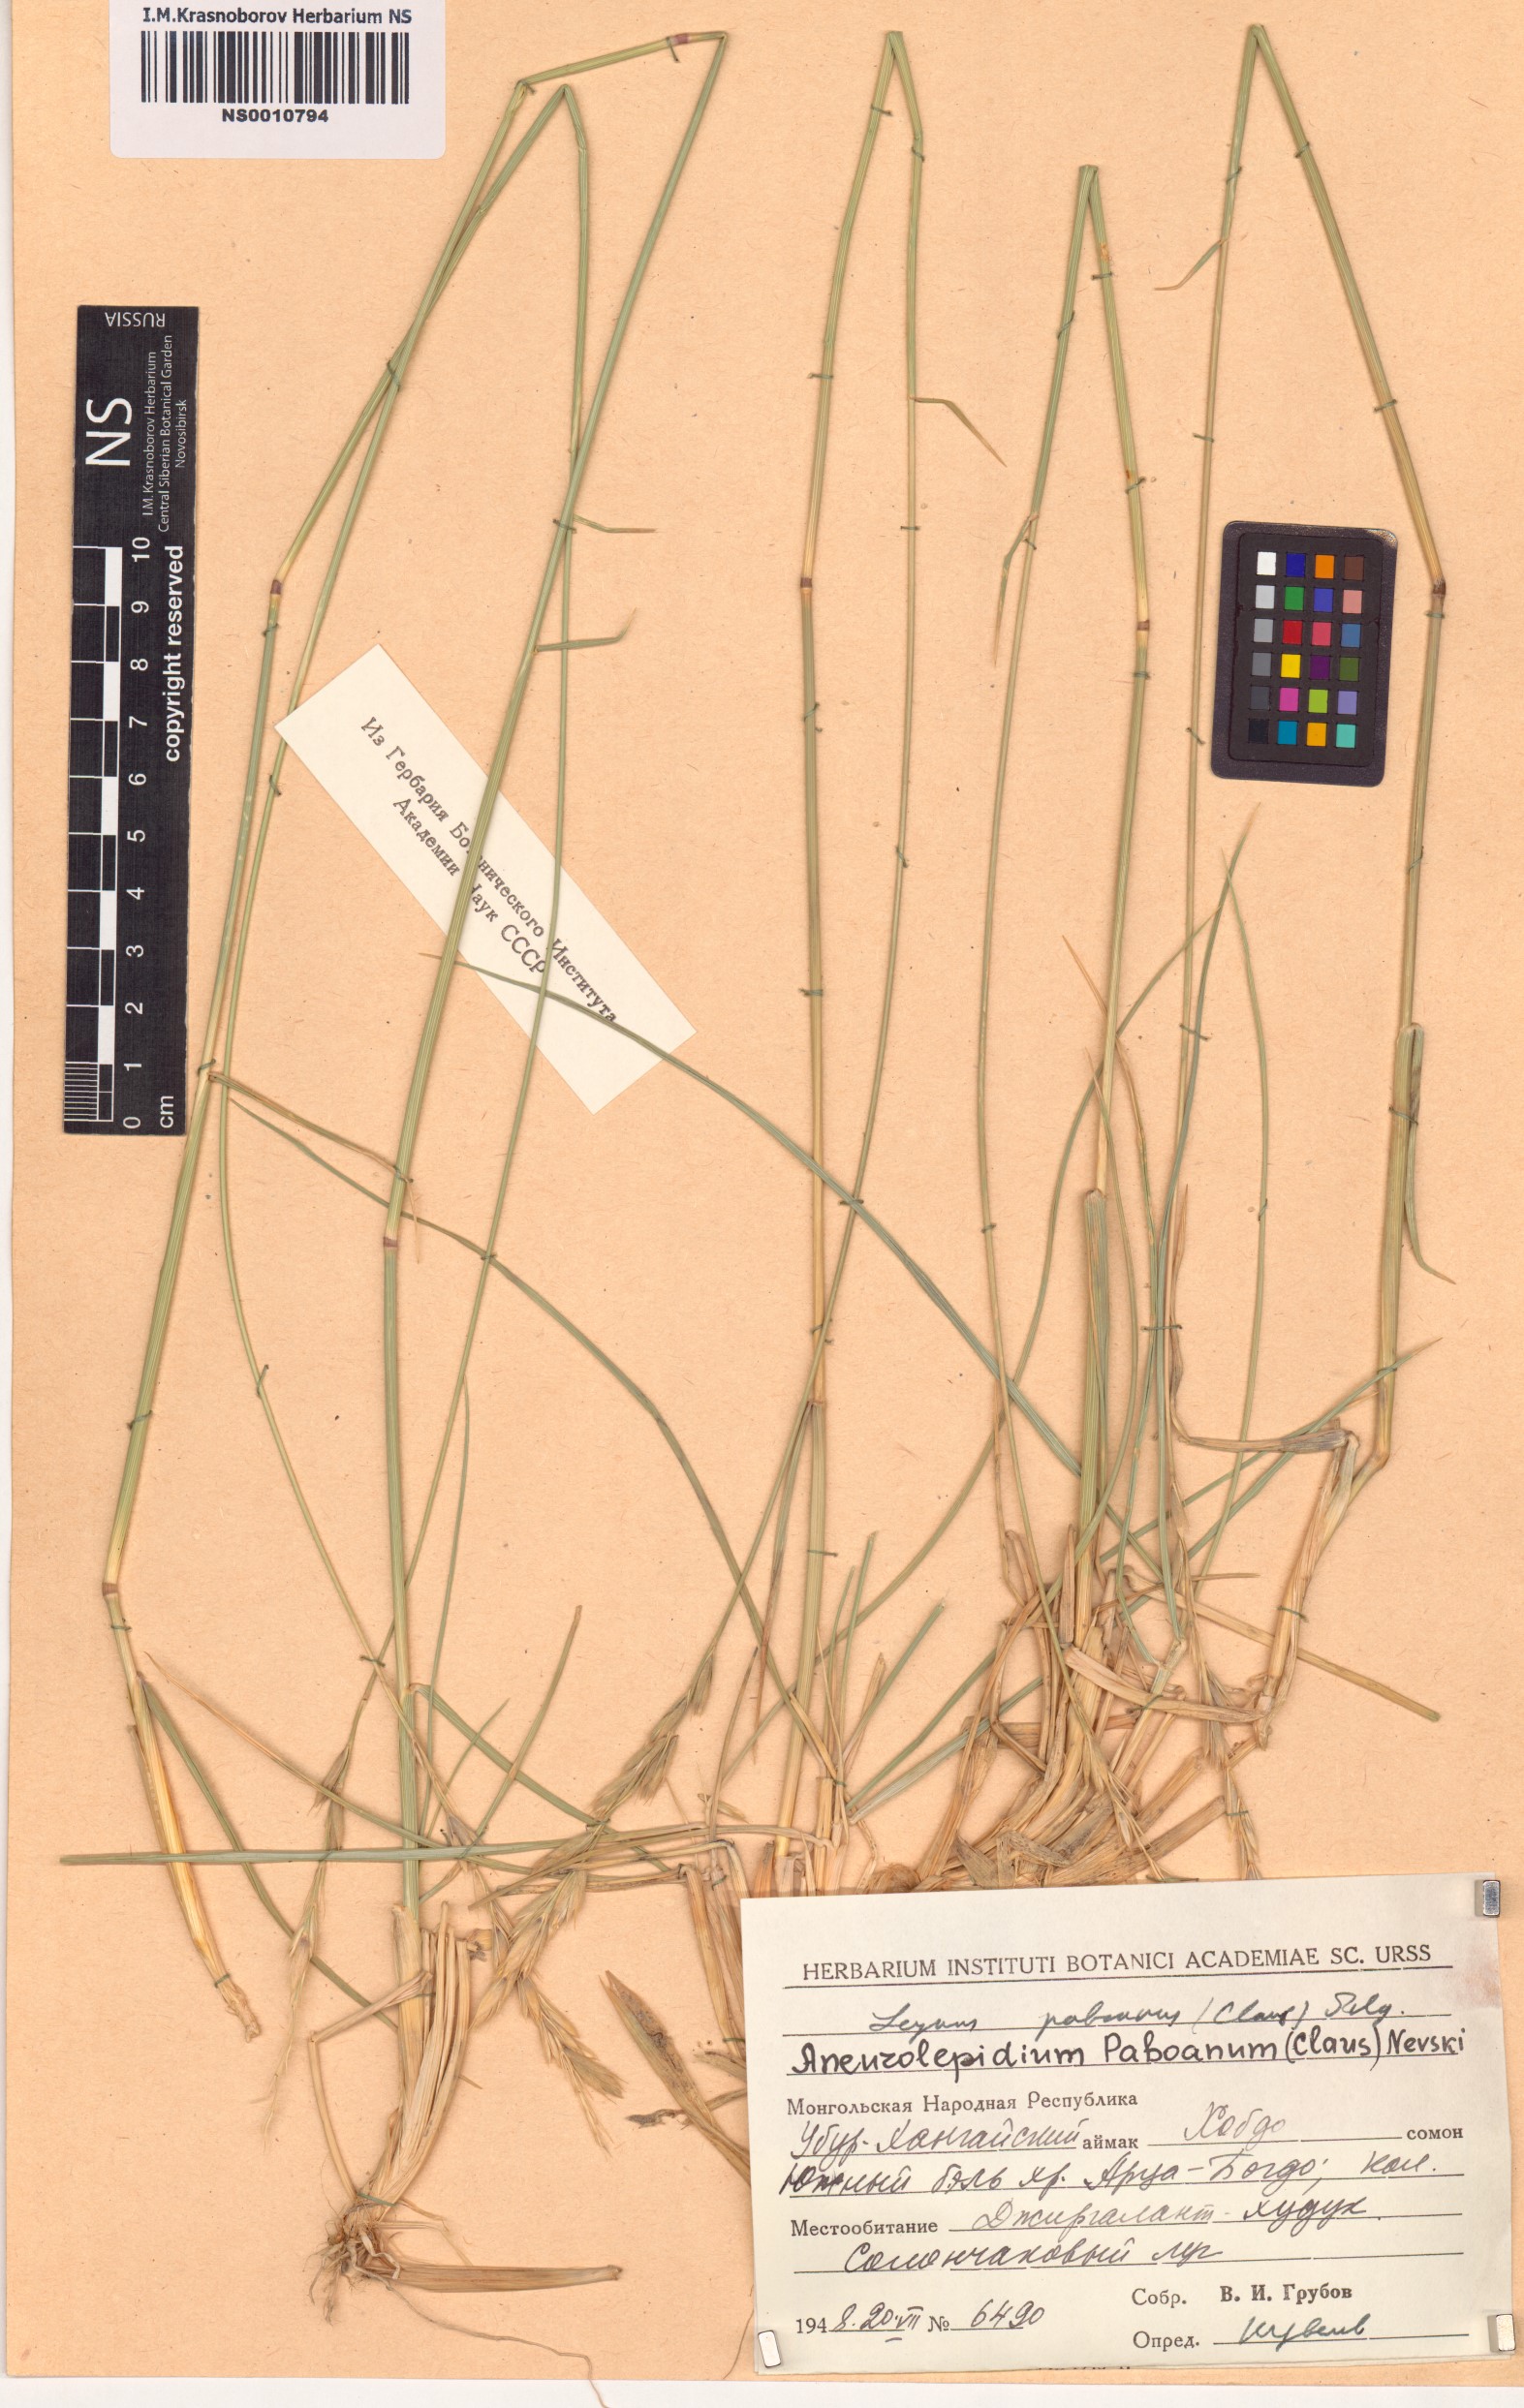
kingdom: Plantae
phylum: Tracheophyta
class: Liliopsida
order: Poales
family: Poaceae
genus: Leymus
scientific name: Leymus paboanus
